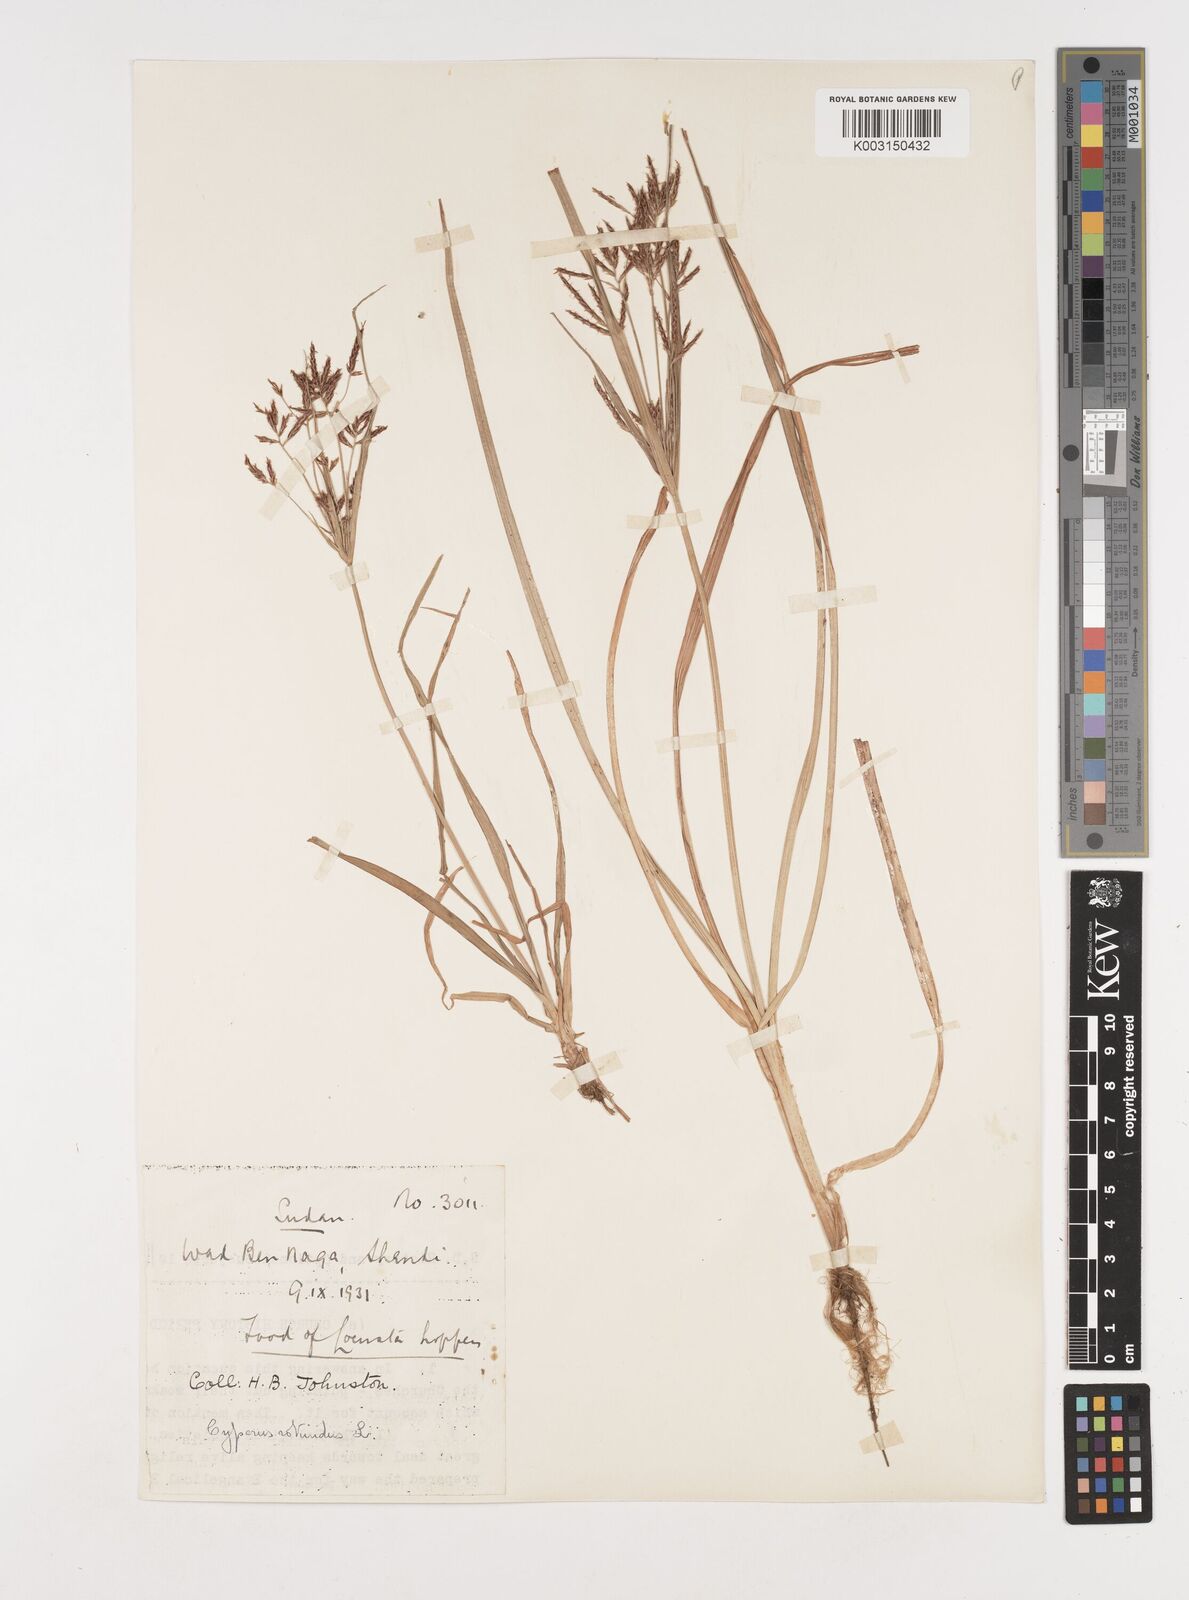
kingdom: Plantae
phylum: Tracheophyta
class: Liliopsida
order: Poales
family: Cyperaceae
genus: Cyperus
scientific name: Cyperus rotundus
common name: Nutgrass
